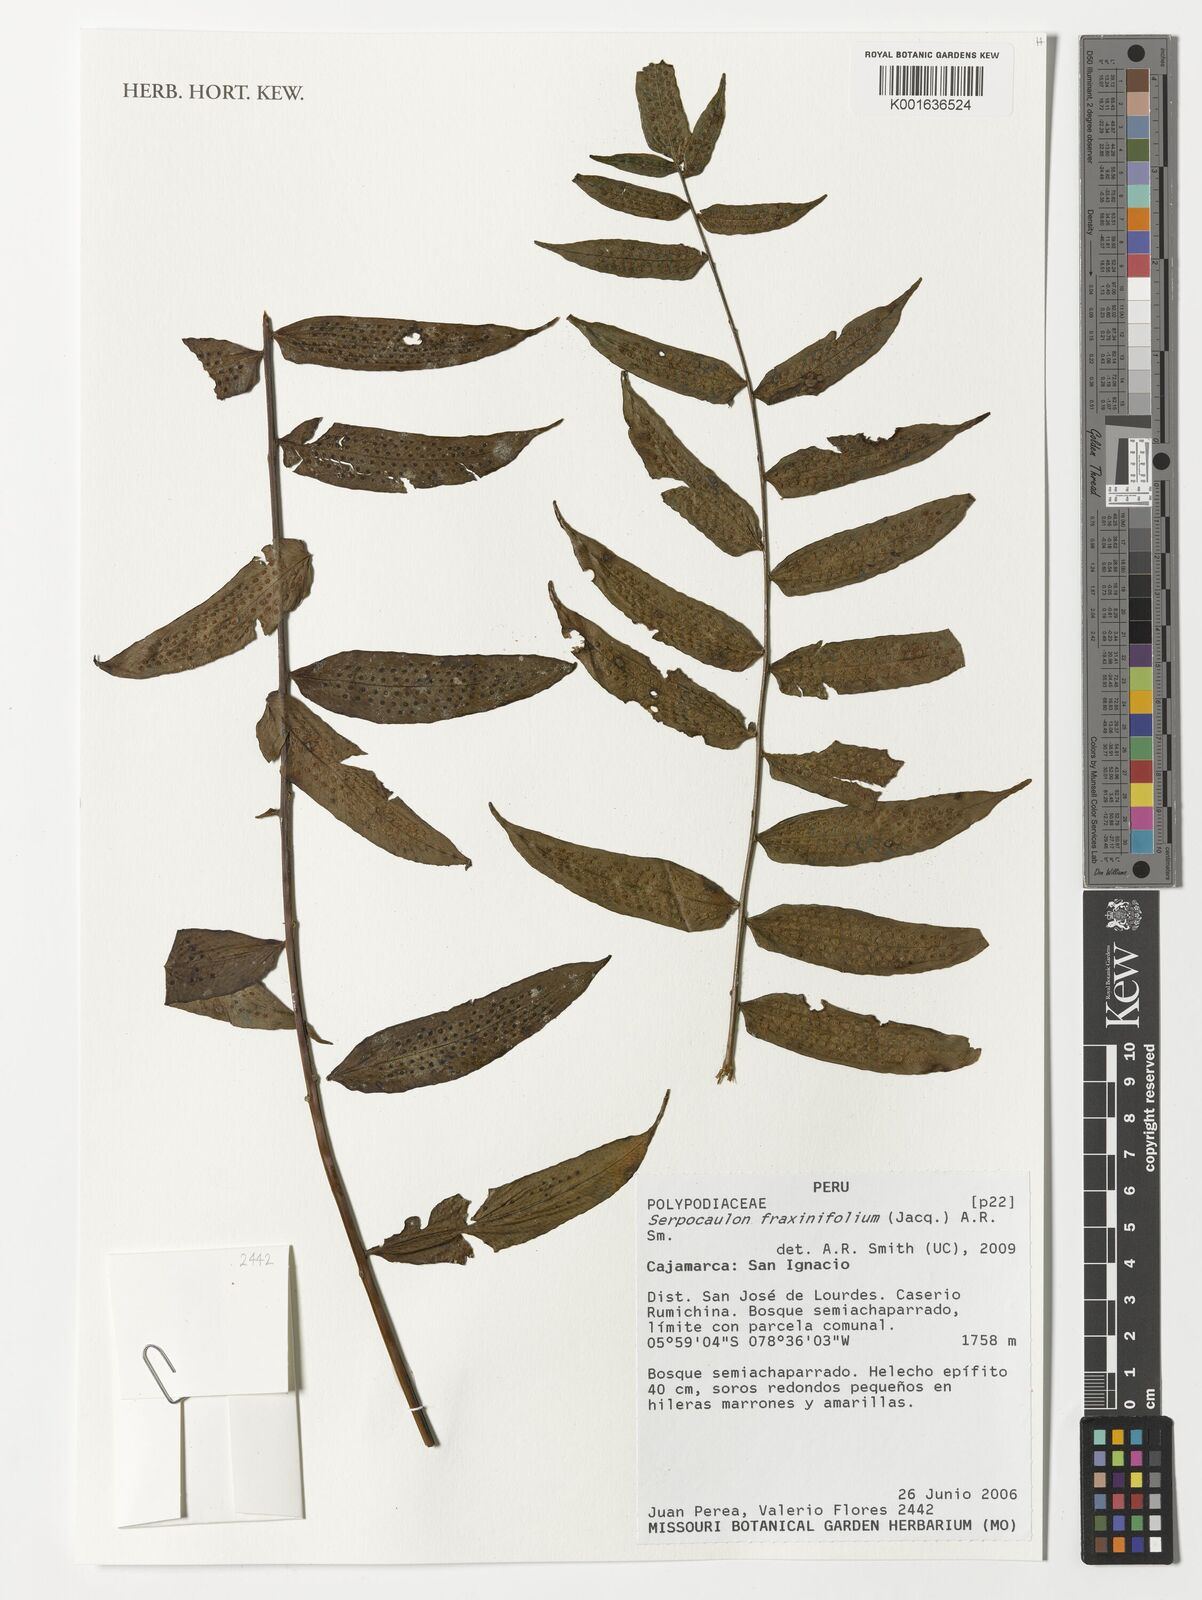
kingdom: Plantae
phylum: Tracheophyta
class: Polypodiopsida
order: Polypodiales
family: Polypodiaceae
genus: Serpocaulon
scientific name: Serpocaulon fraxinifolium
